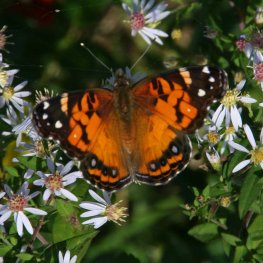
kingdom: Animalia
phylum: Arthropoda
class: Insecta
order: Lepidoptera
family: Nymphalidae
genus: Vanessa
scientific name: Vanessa virginiensis
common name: American Lady
